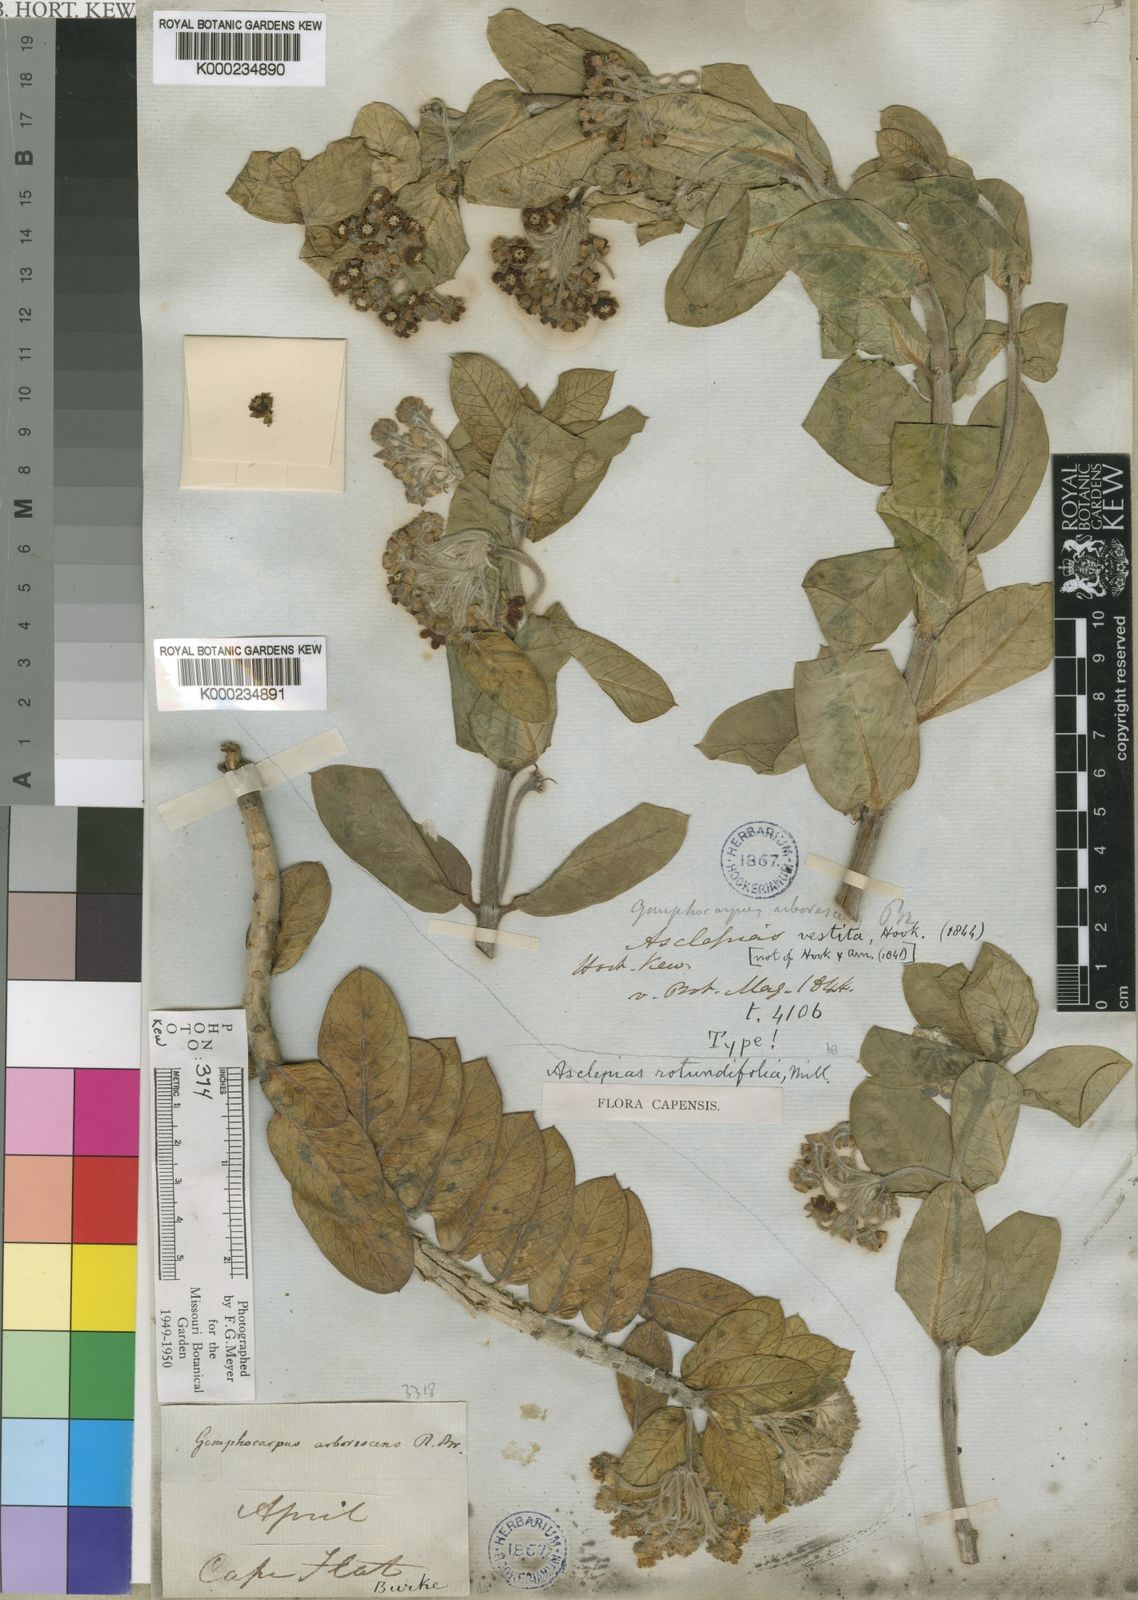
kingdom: Plantae
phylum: Tracheophyta
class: Magnoliopsida
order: Gentianales
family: Apocynaceae
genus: Gomphocarpus
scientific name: Gomphocarpus cancellatus
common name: Wild cotton
